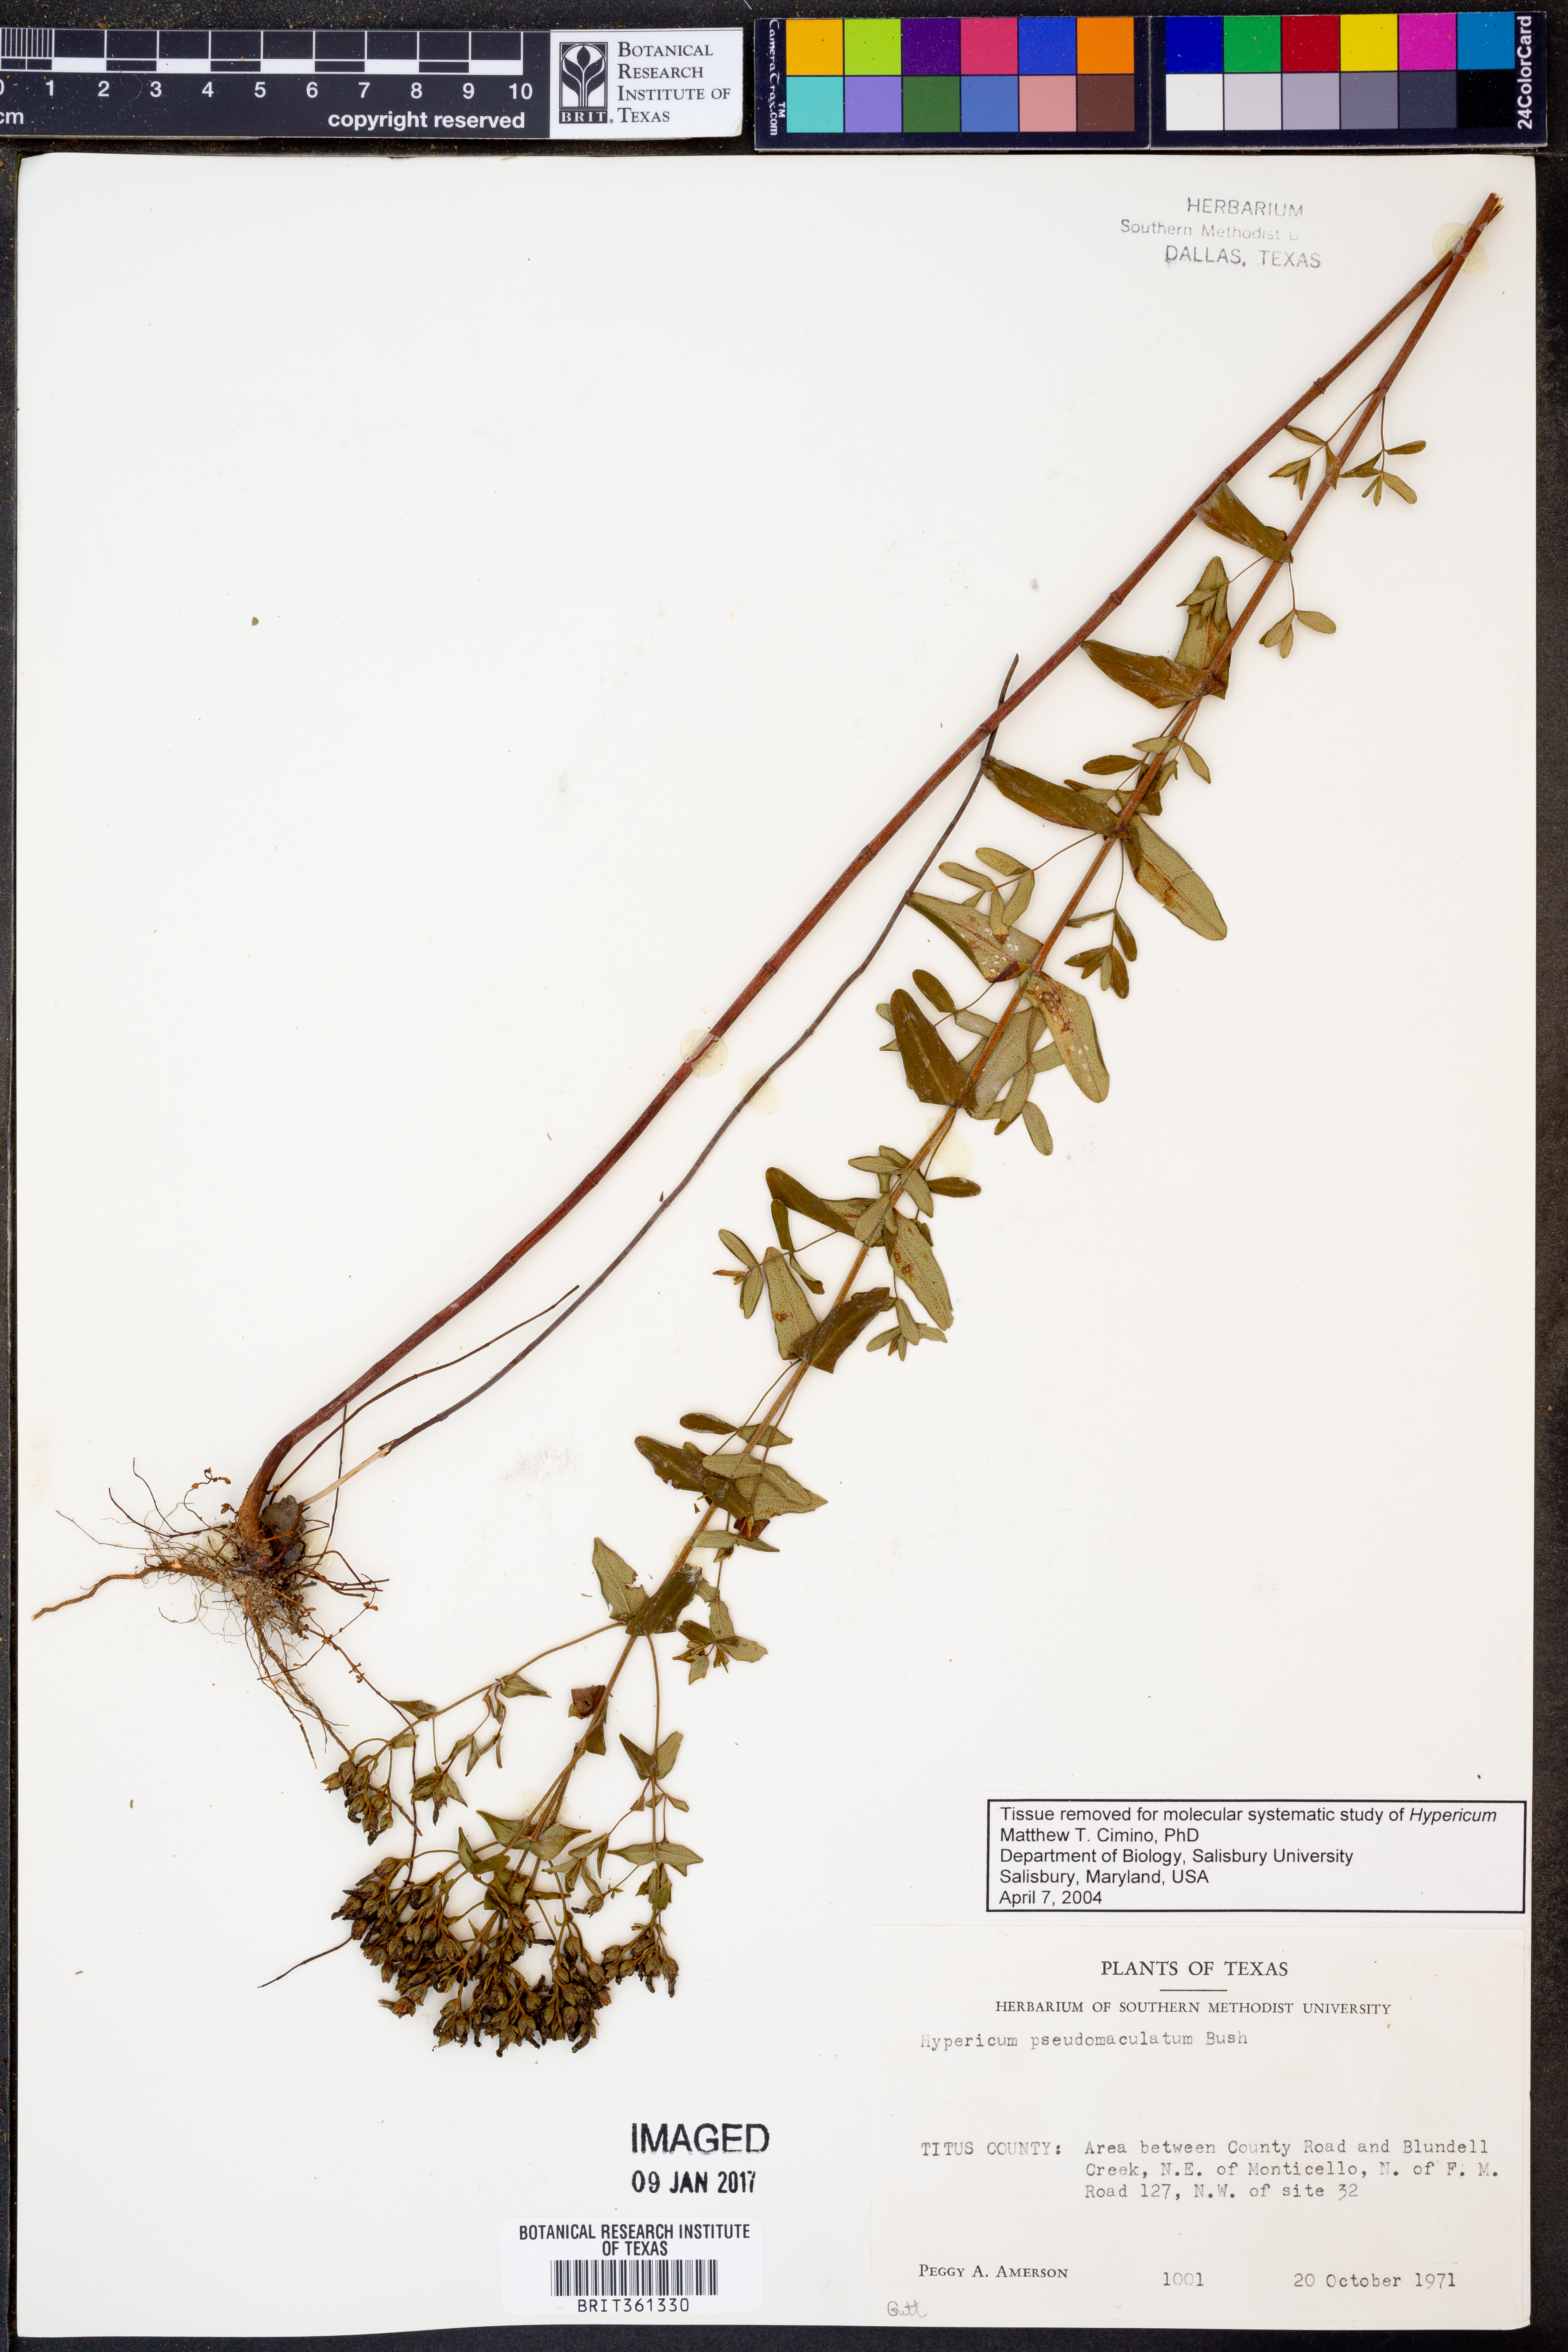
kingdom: Plantae
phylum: Tracheophyta
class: Magnoliopsida
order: Malpighiales
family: Hypericaceae
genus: Hypericum
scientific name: Hypericum pseudomaculatum
